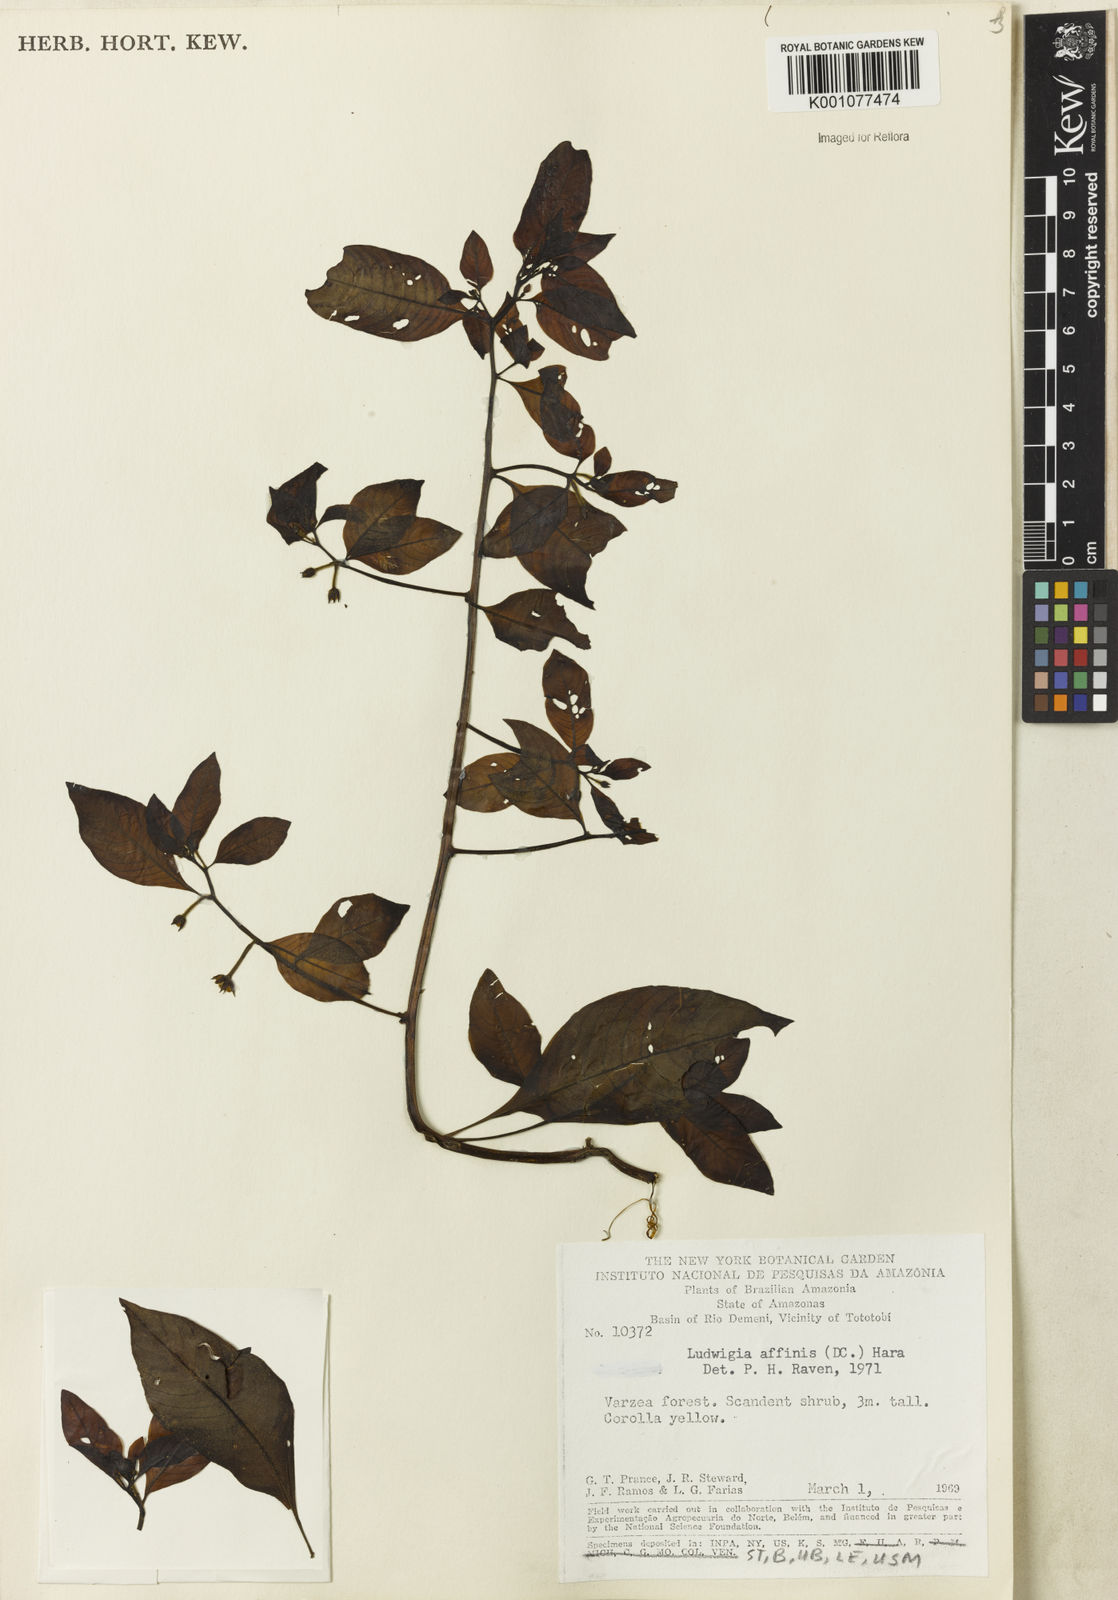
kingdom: Plantae
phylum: Tracheophyta
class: Magnoliopsida
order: Myrtales
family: Onagraceae
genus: Ludwigia
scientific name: Ludwigia affinis
